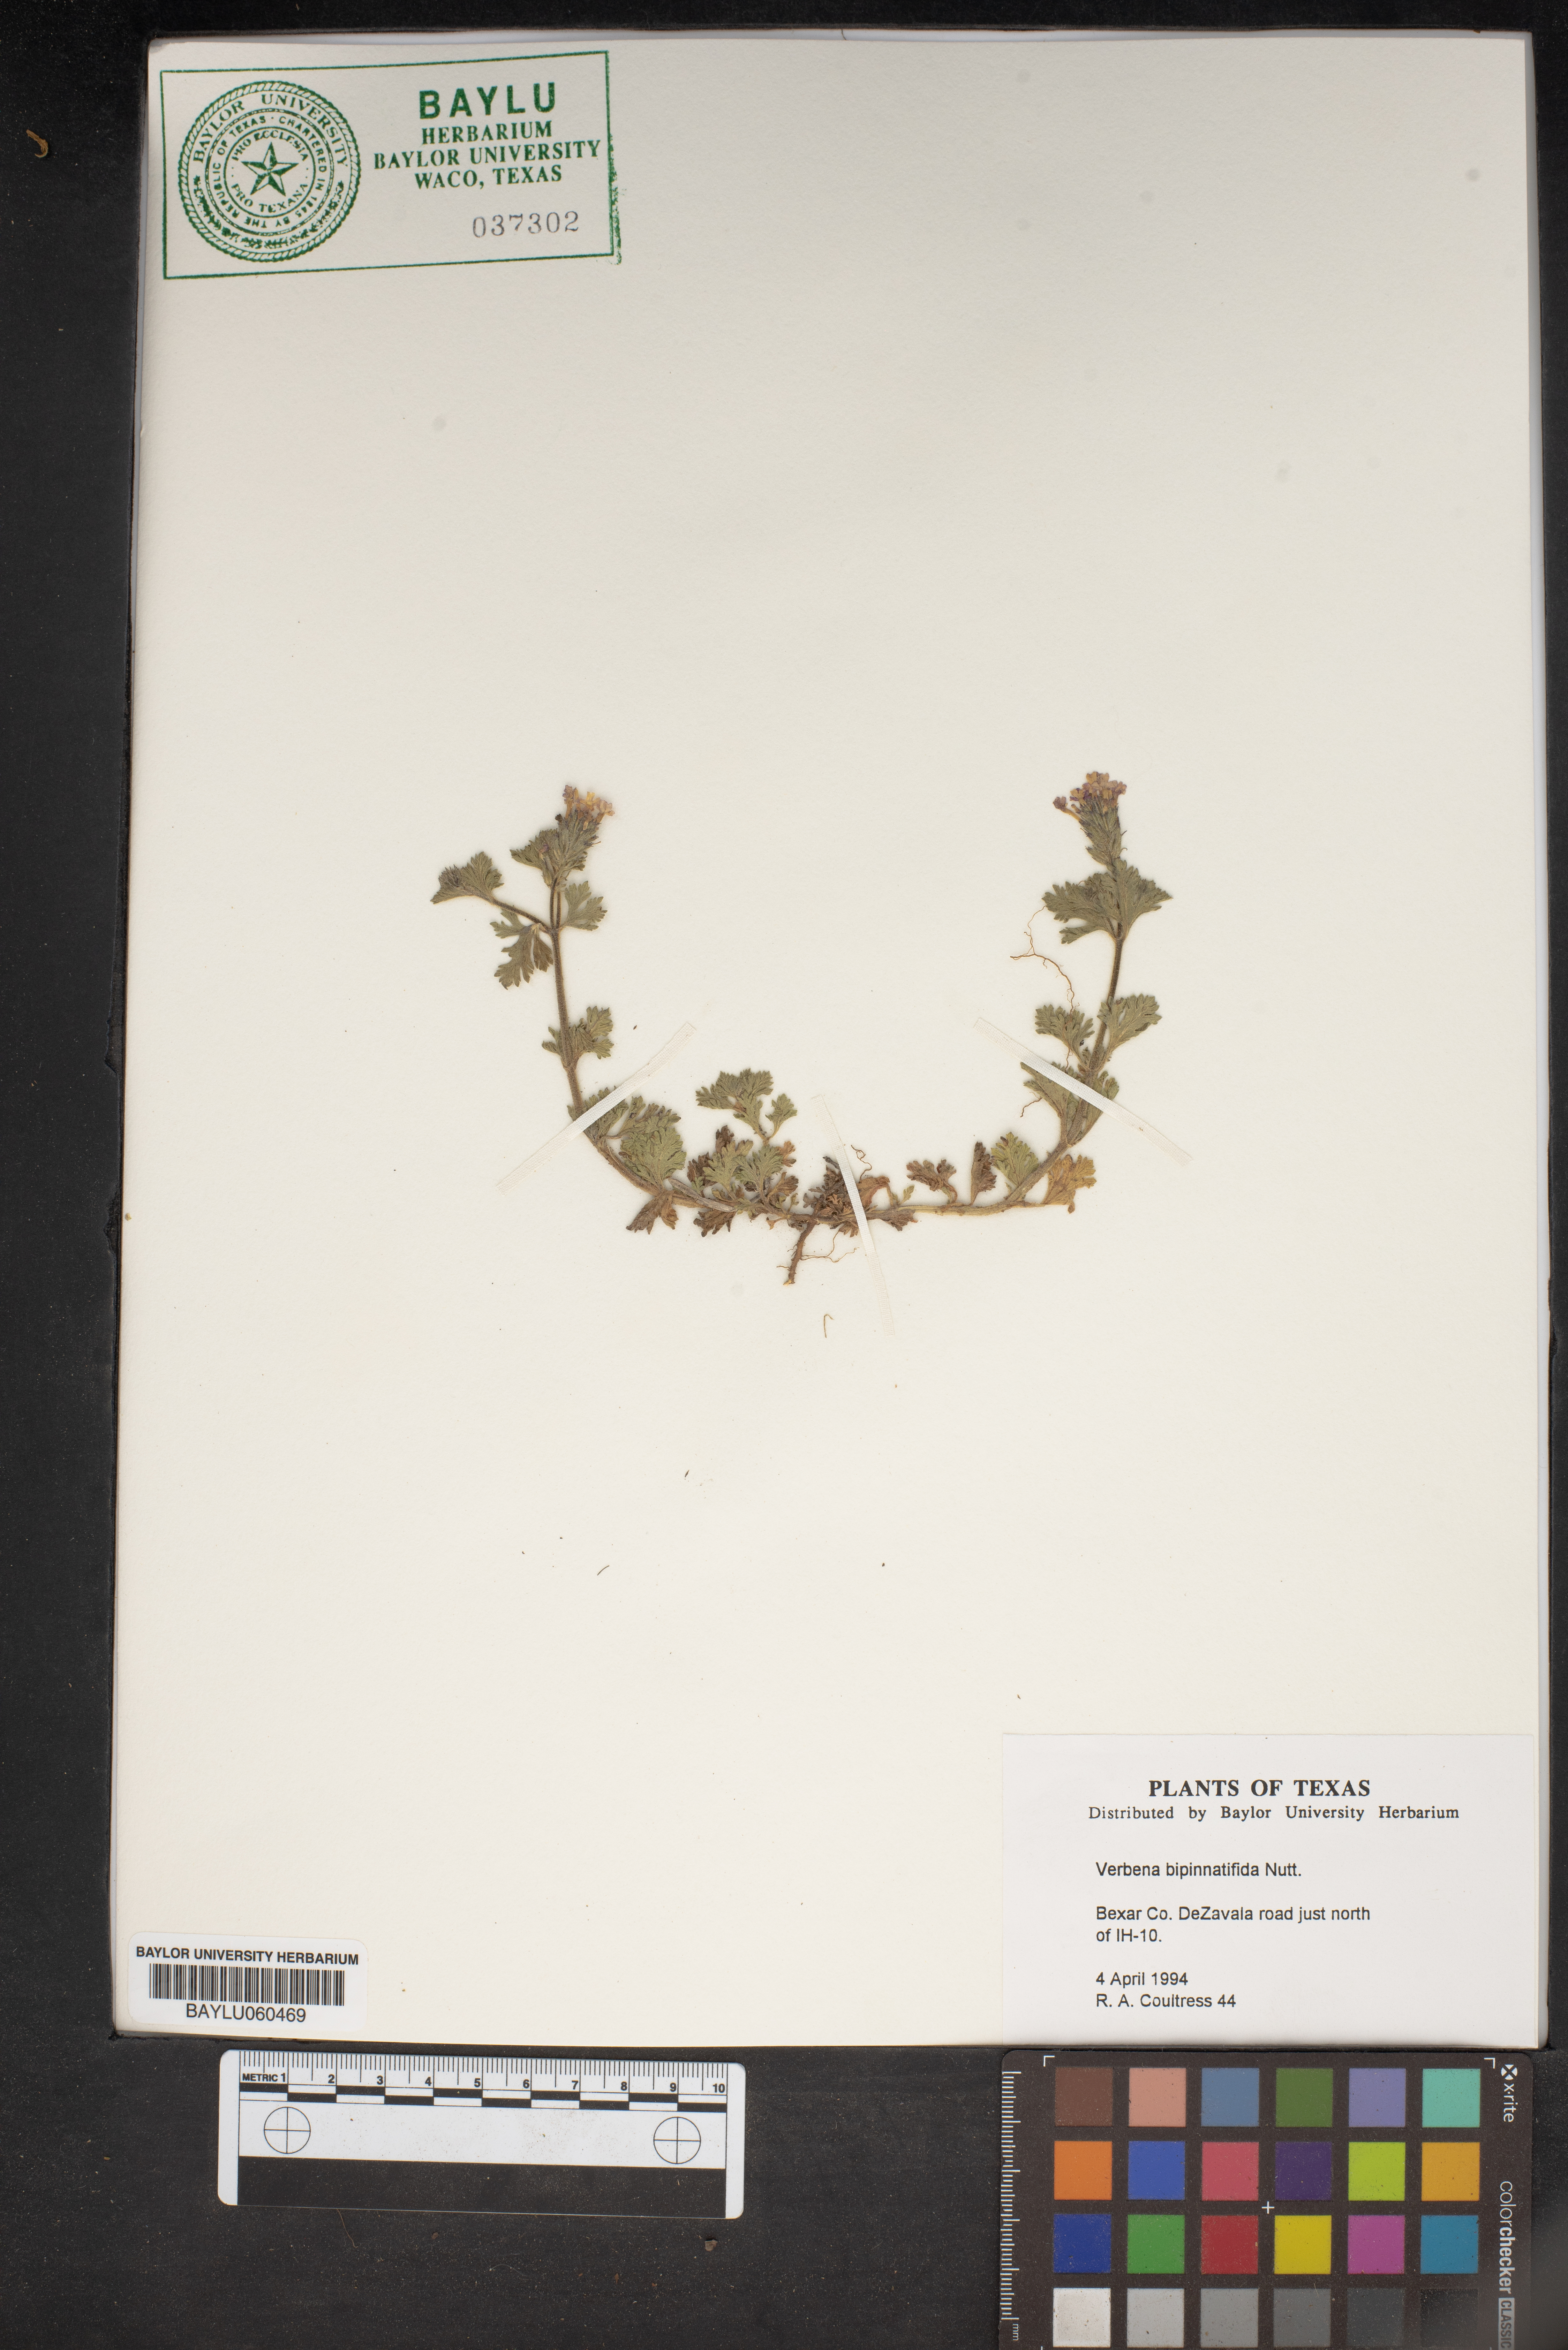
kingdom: Plantae
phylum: Tracheophyta
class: Magnoliopsida
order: Lamiales
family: Verbenaceae
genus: Verbena
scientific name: Verbena bipinnatifida
